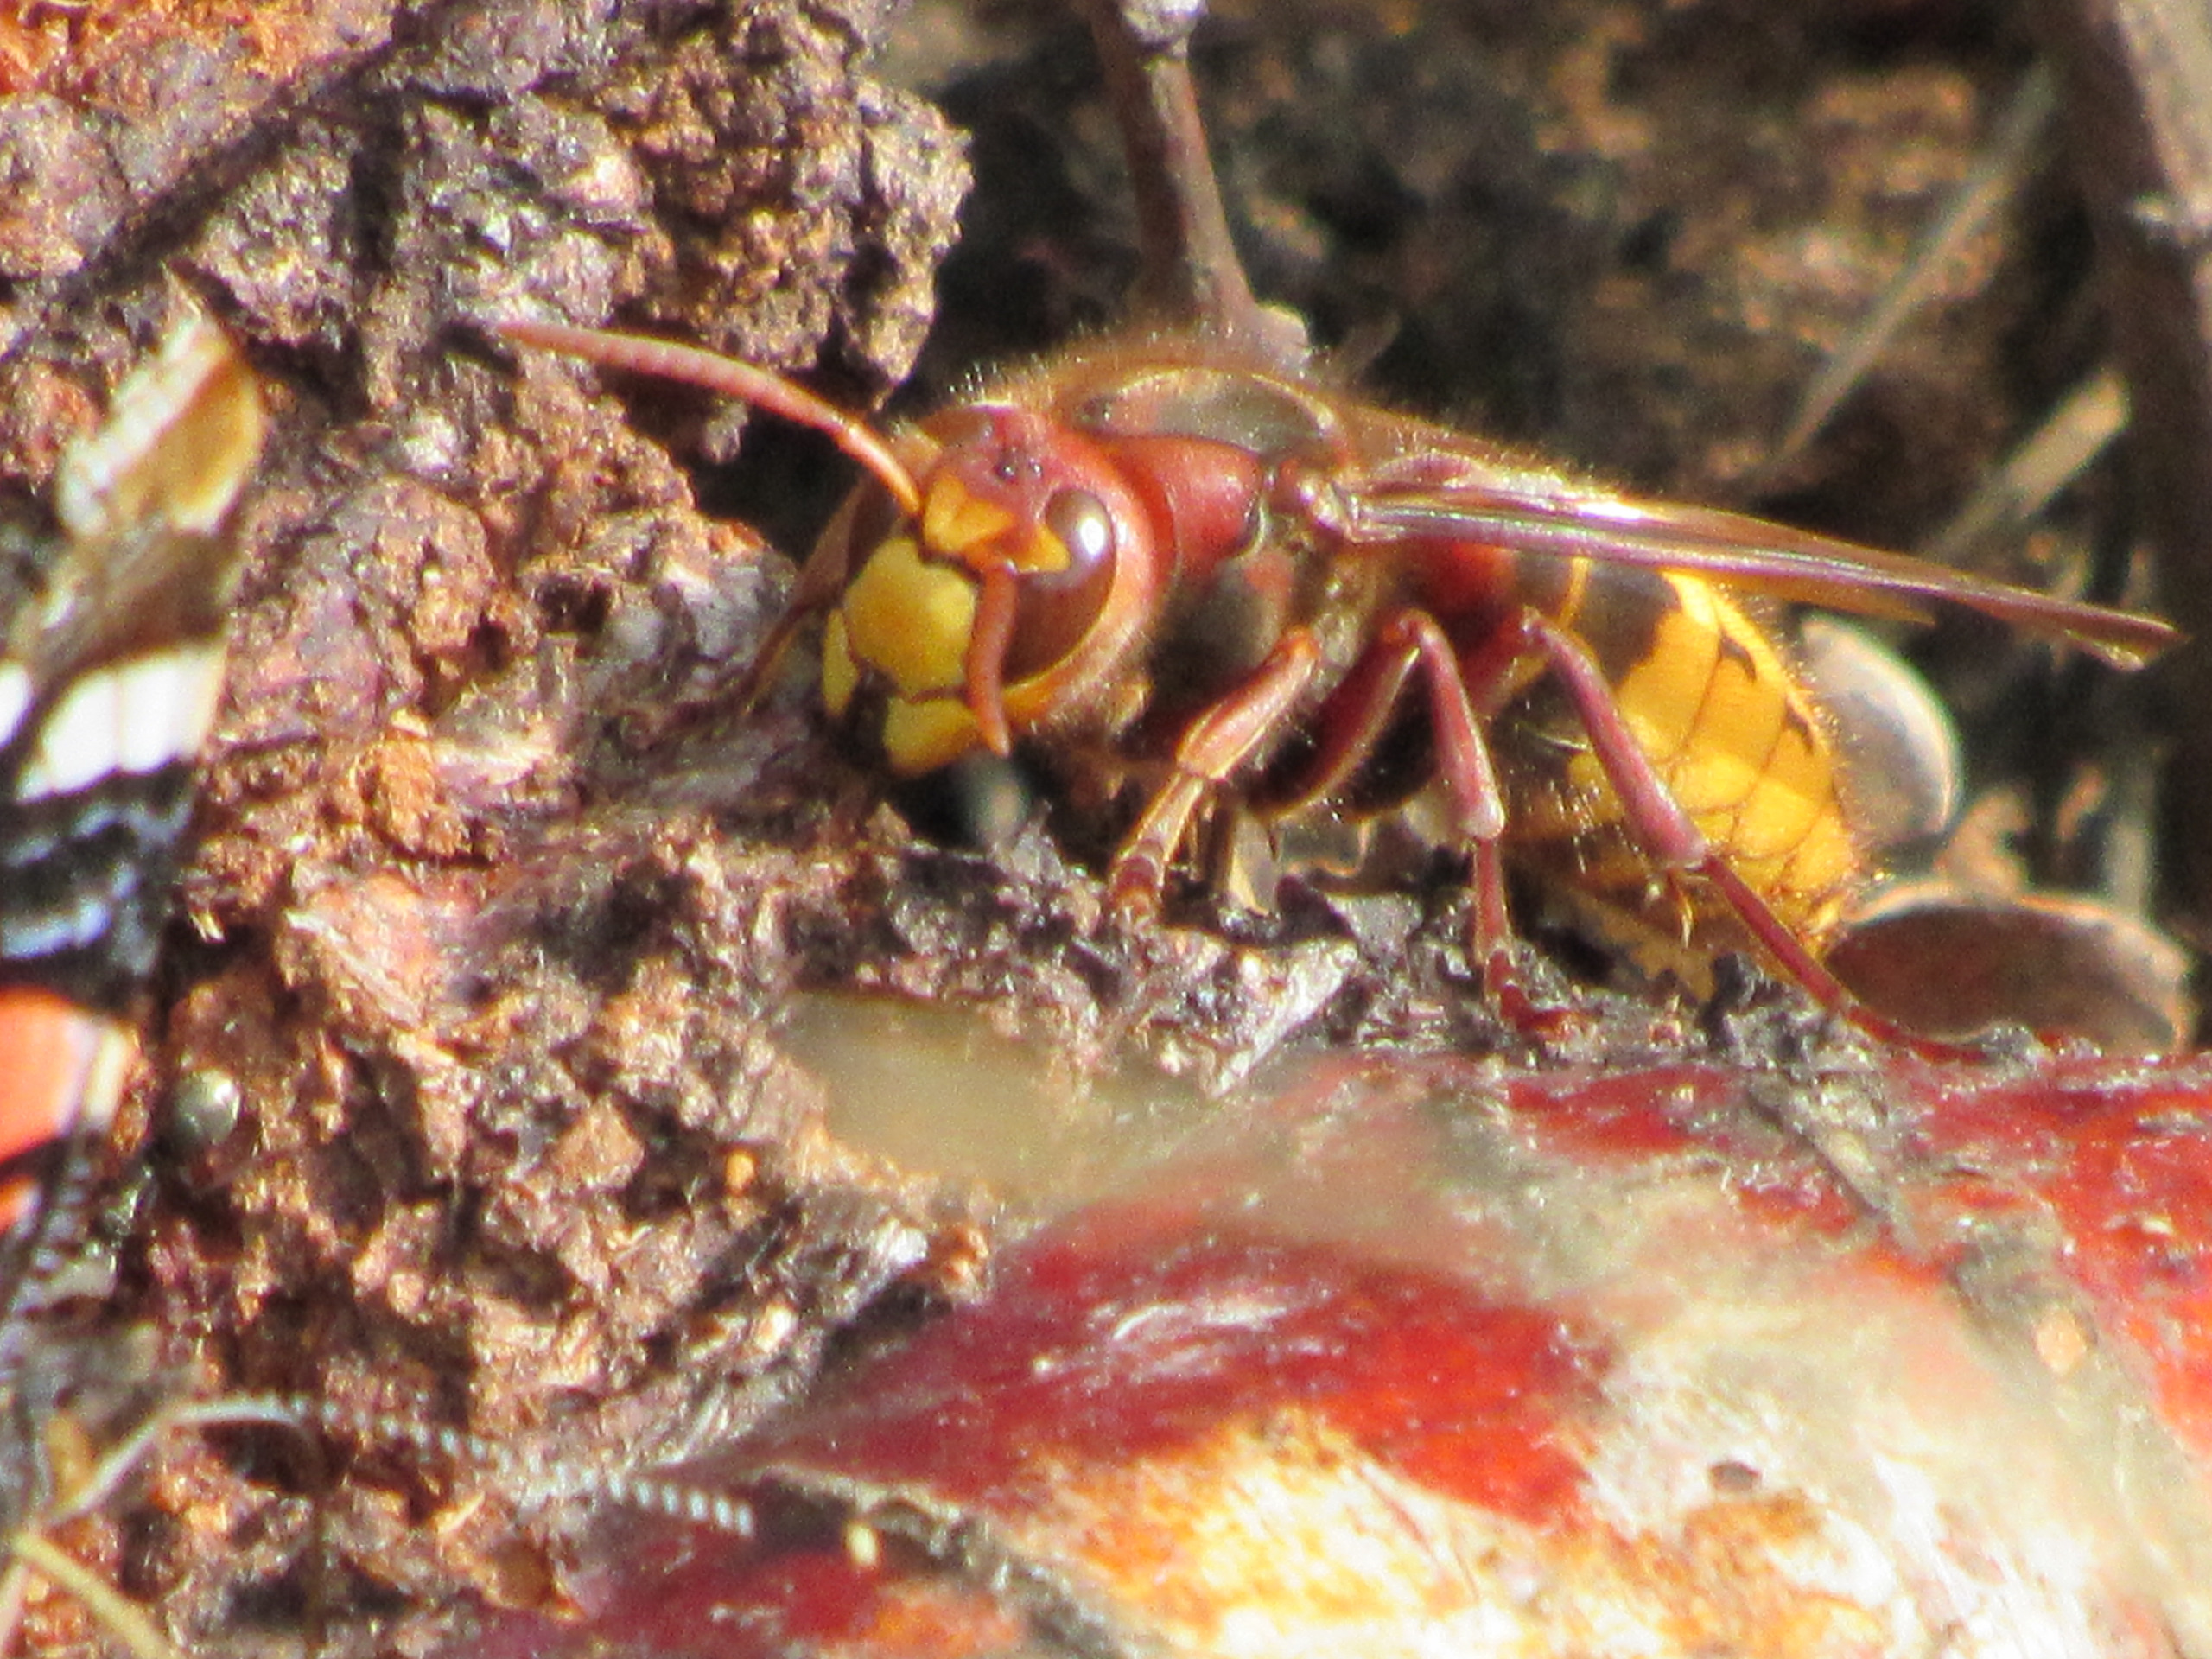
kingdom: Animalia
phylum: Arthropoda
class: Insecta
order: Hymenoptera
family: Vespidae
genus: Vespa
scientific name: Vespa crabro
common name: Stor gedehams
